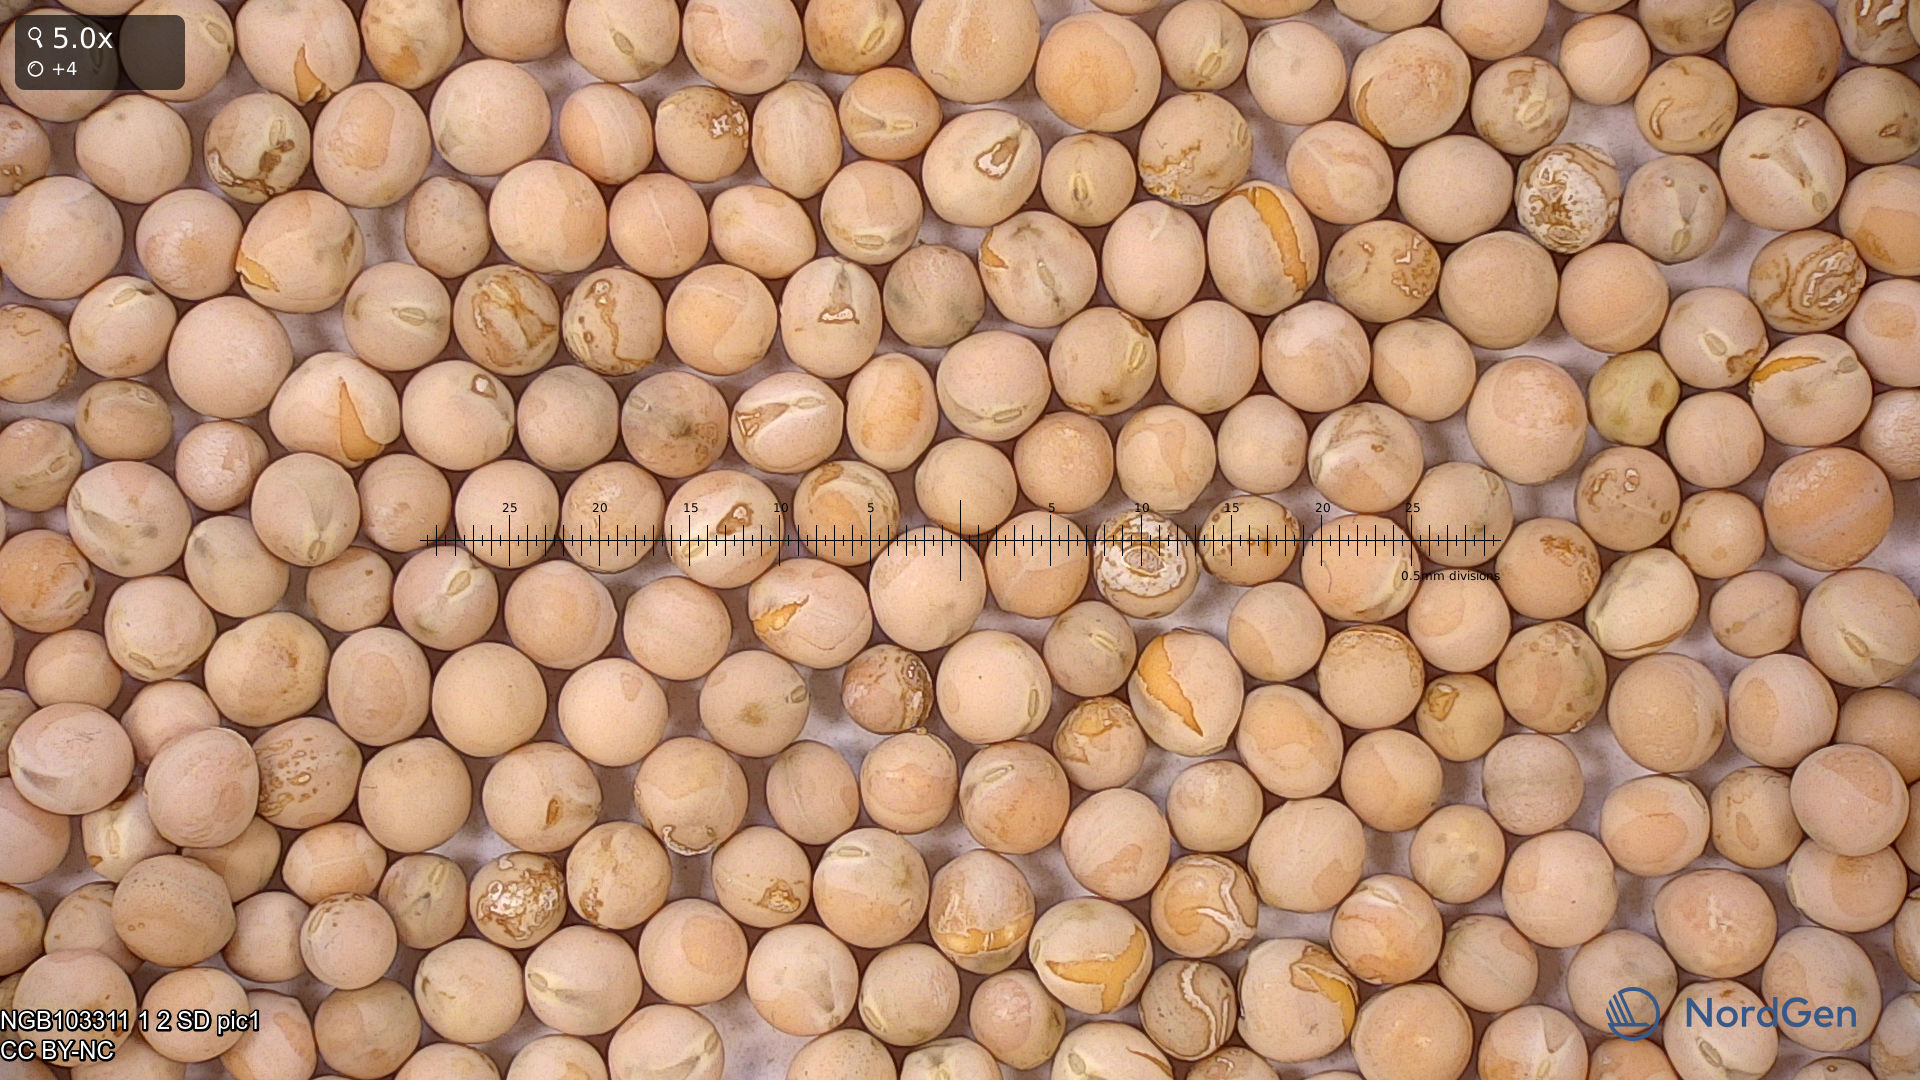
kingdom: Plantae
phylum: Tracheophyta
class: Magnoliopsida
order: Fabales
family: Fabaceae
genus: Lathyrus
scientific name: Lathyrus oleraceus
